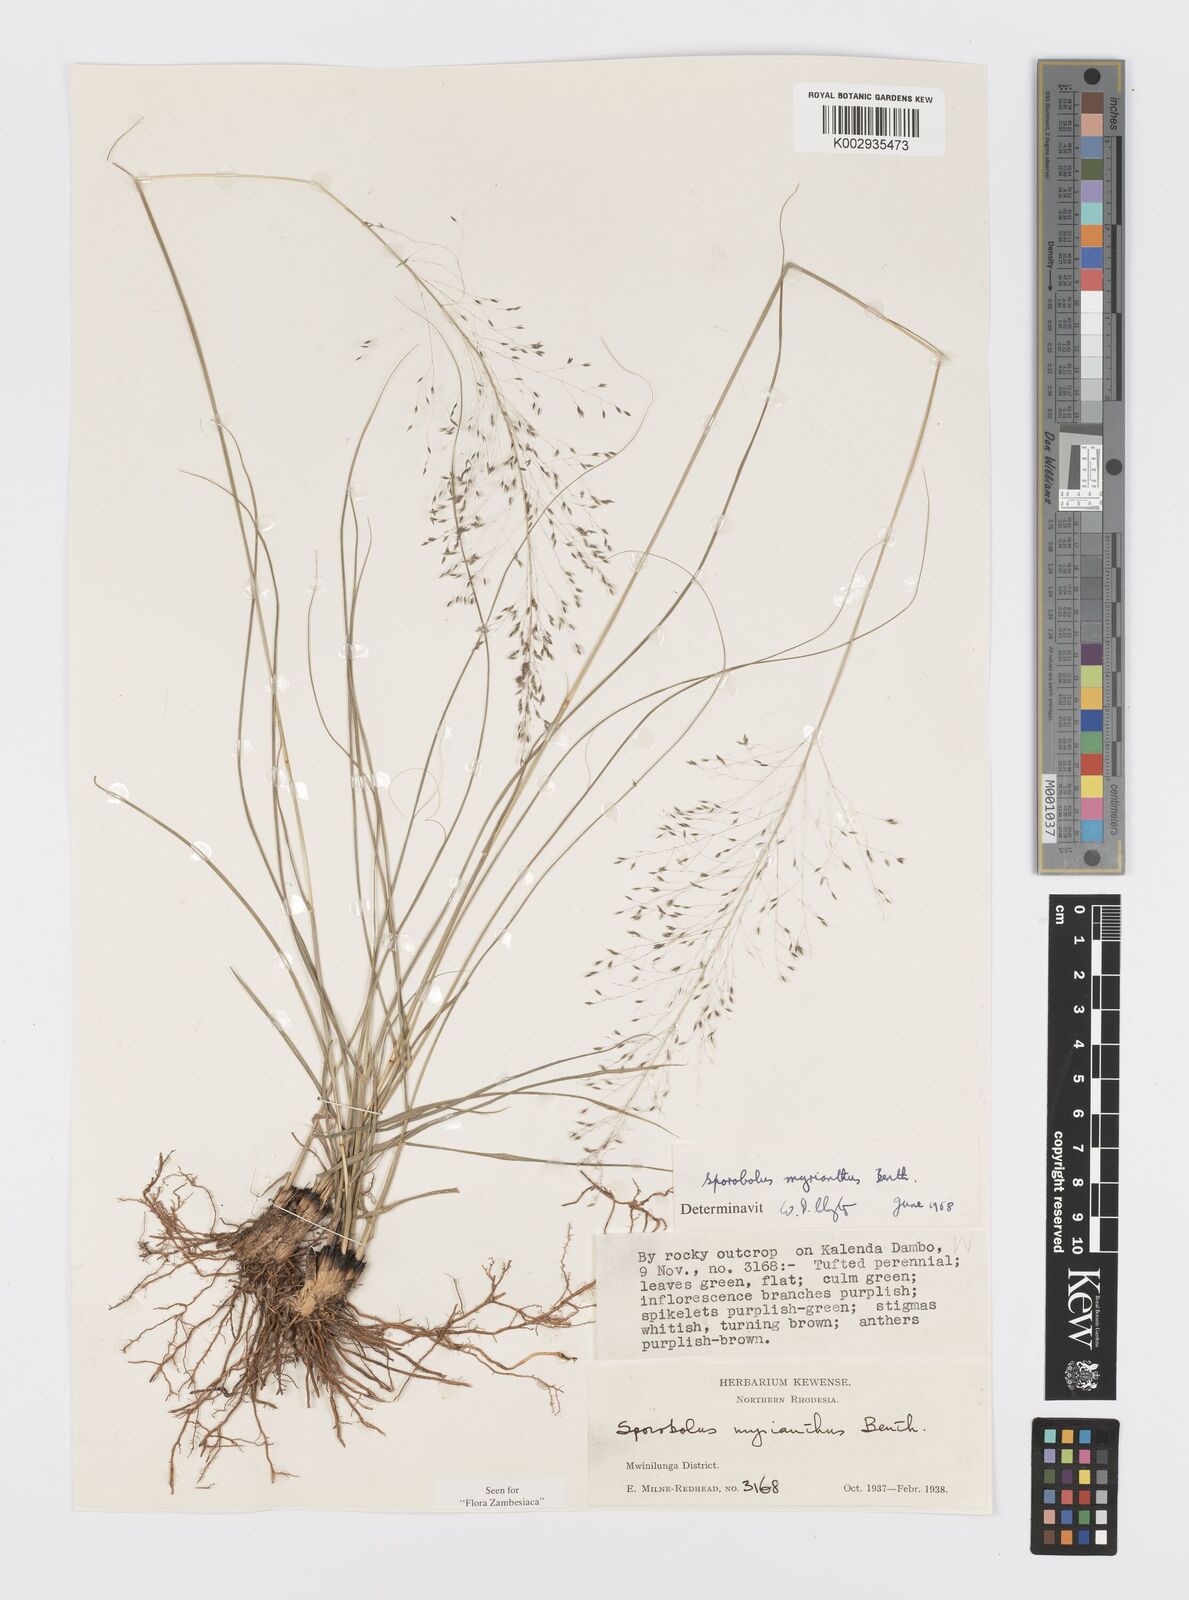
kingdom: Plantae
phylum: Tracheophyta
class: Liliopsida
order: Poales
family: Poaceae
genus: Sporobolus
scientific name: Sporobolus myrianthus
